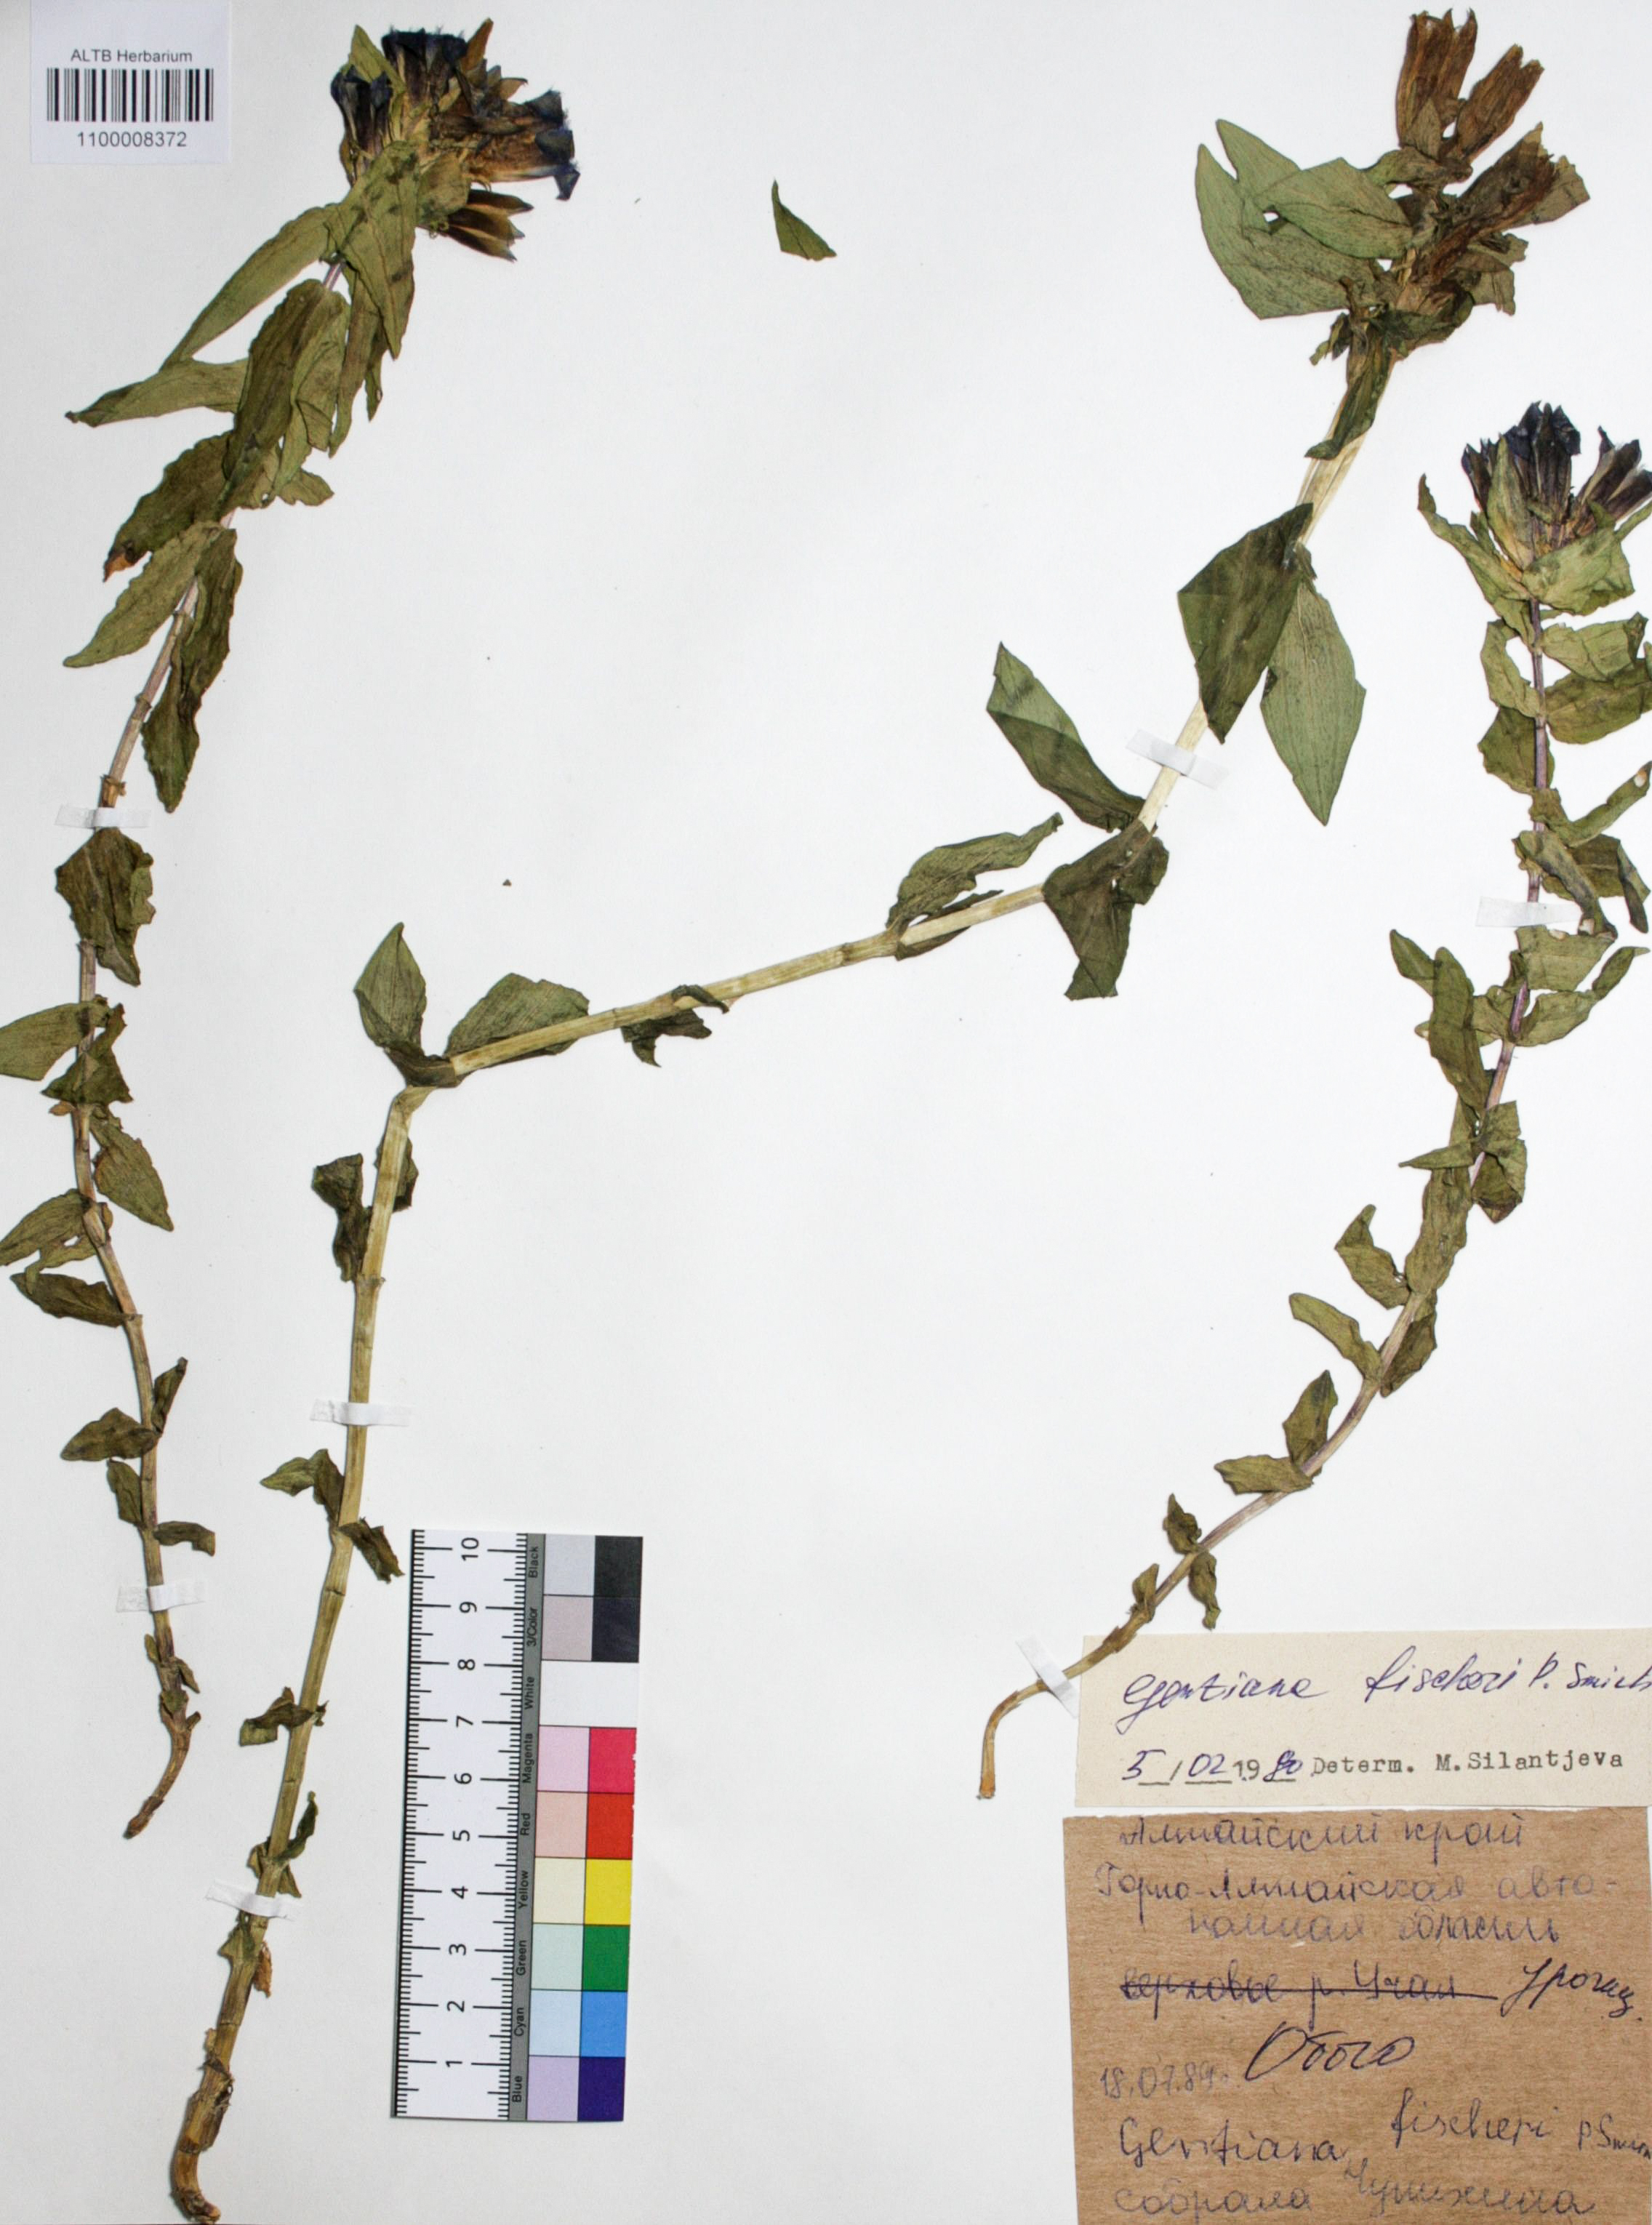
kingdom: Plantae
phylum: Tracheophyta
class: Magnoliopsida
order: Gentianales
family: Gentianaceae
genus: Gentiana
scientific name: Gentiana dschungarica
